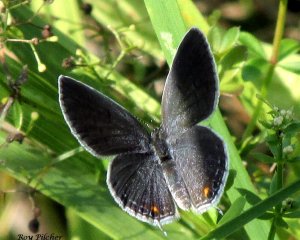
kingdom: Animalia
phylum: Arthropoda
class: Insecta
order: Lepidoptera
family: Lycaenidae
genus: Elkalyce
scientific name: Elkalyce comyntas
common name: Eastern Tailed-Blue
